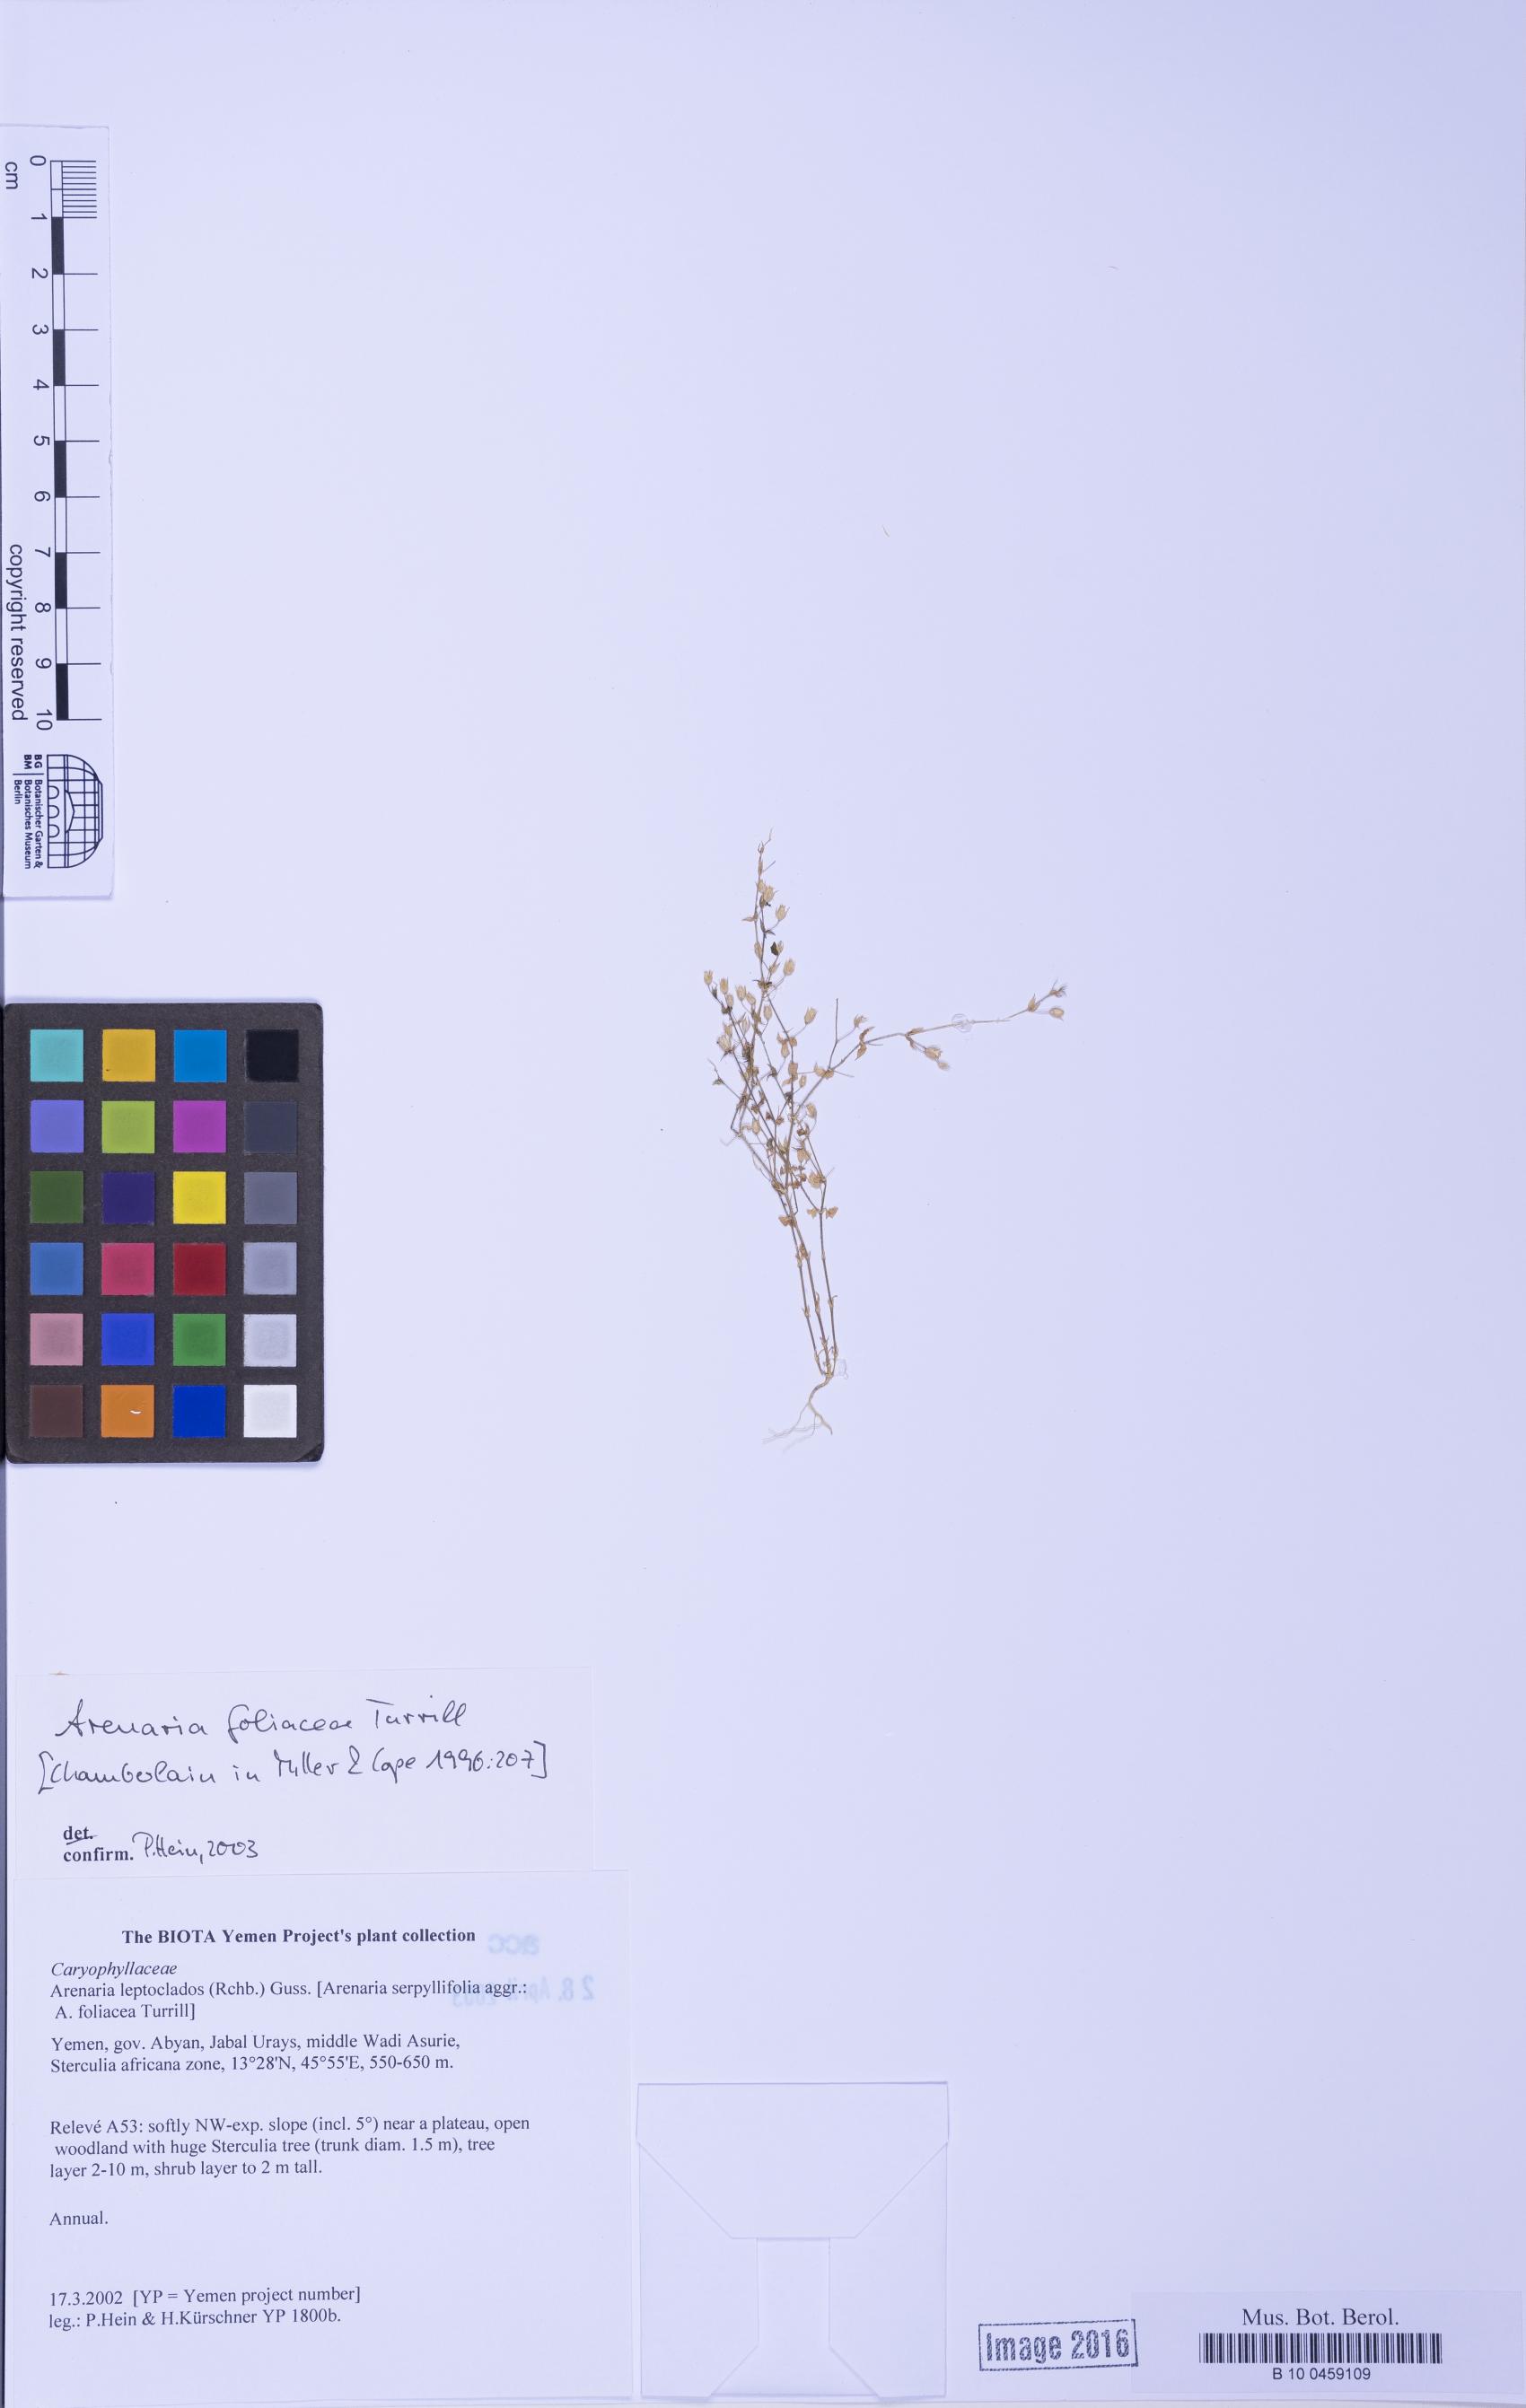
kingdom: Plantae
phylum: Tracheophyta
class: Magnoliopsida
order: Caryophyllales
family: Caryophyllaceae
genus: Arenaria
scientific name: Arenaria leptoclados
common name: Thyme-leaved sandwort
